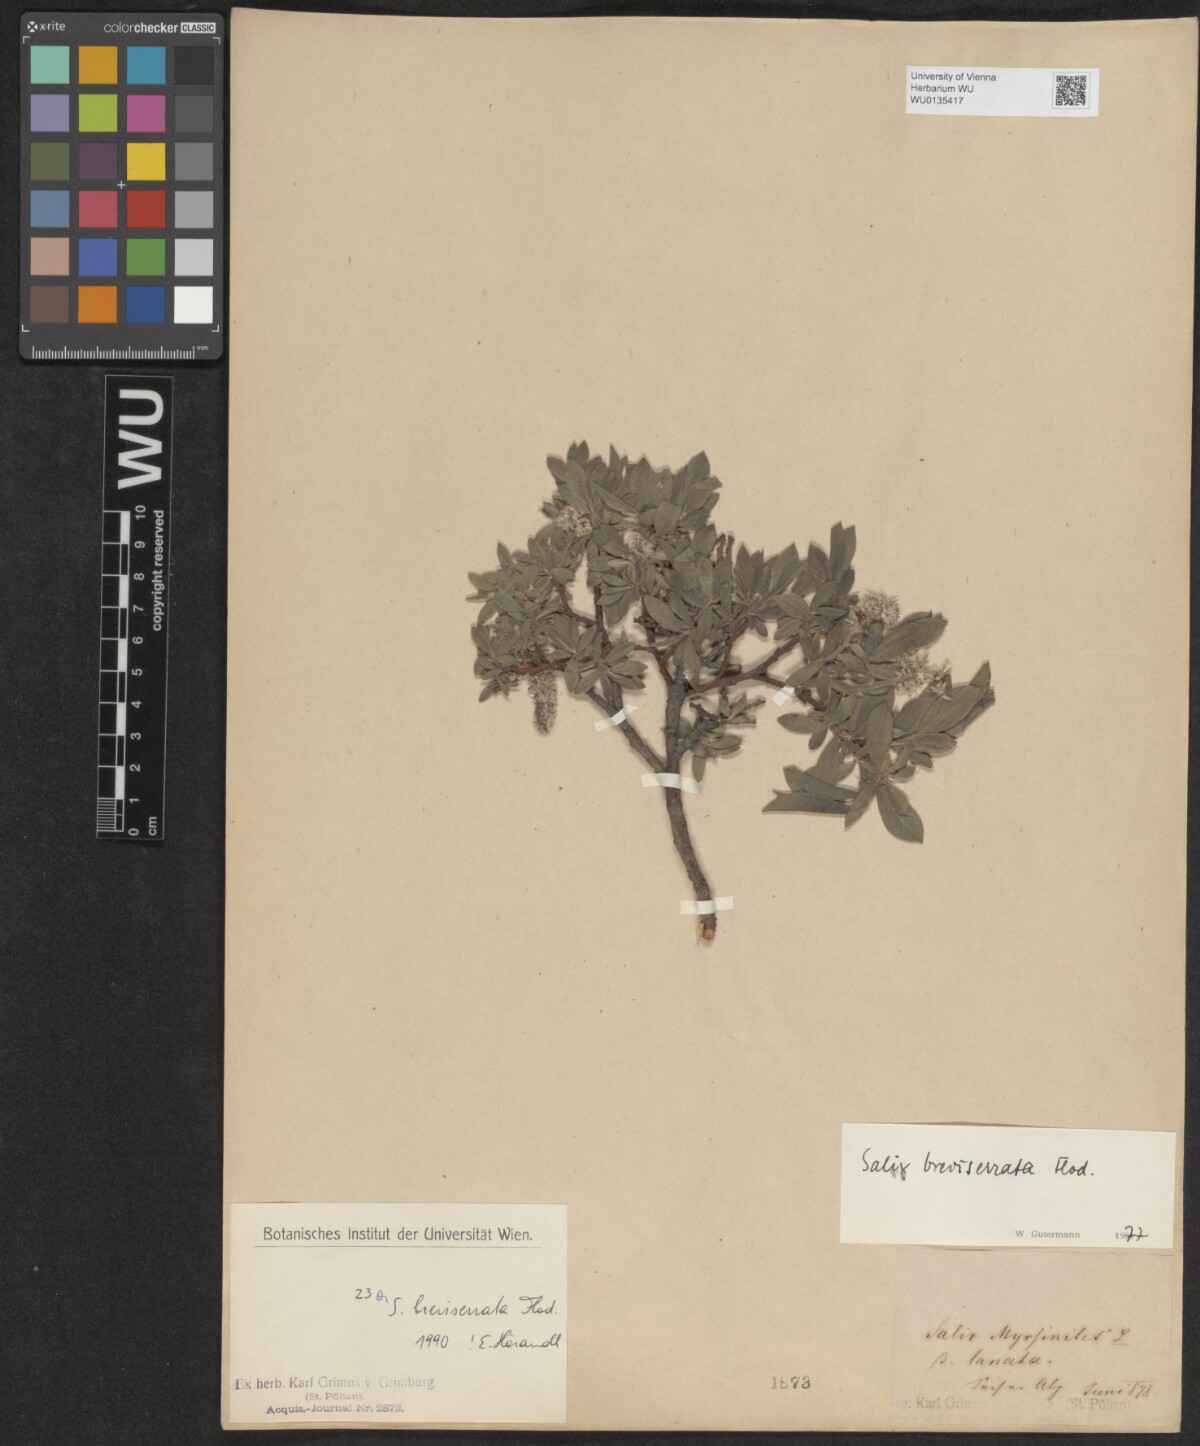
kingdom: Plantae
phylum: Tracheophyta
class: Magnoliopsida
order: Malpighiales
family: Salicaceae
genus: Salix
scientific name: Salix breviserrata
